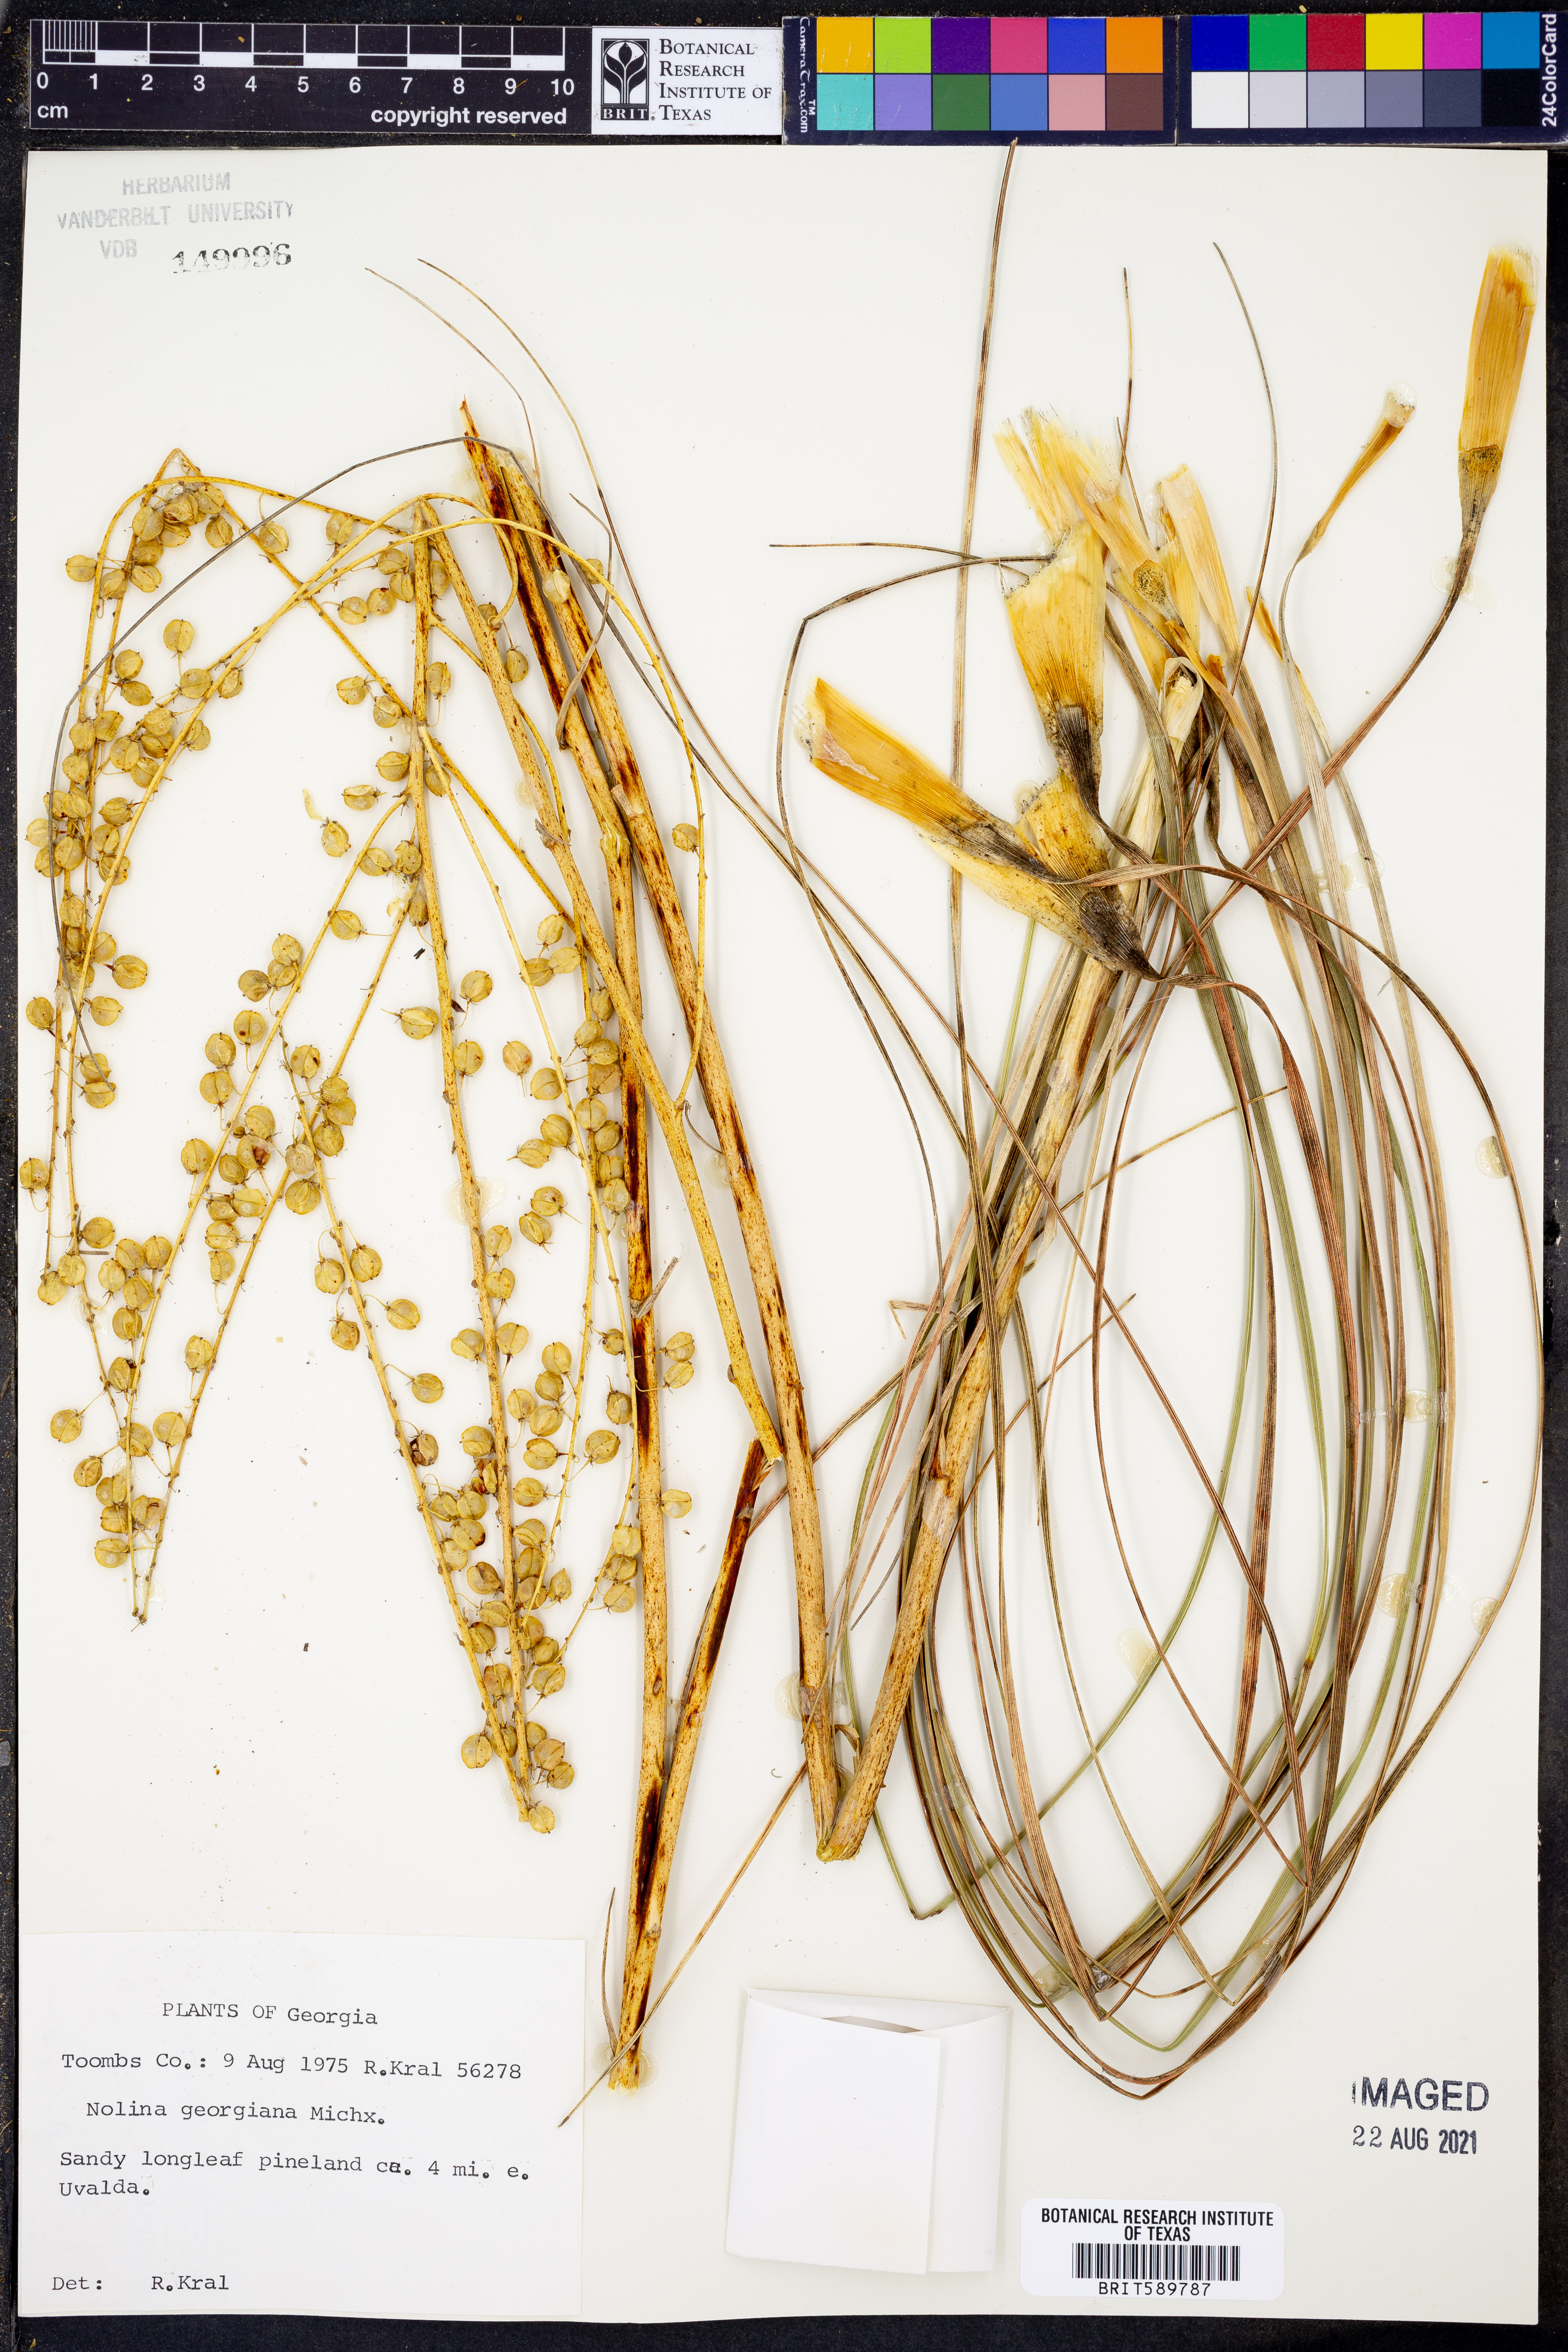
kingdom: Plantae
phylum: Tracheophyta
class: Liliopsida
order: Asparagales
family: Asparagaceae
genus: Nolina
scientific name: Nolina georgiana
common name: Georgia bear-grass
